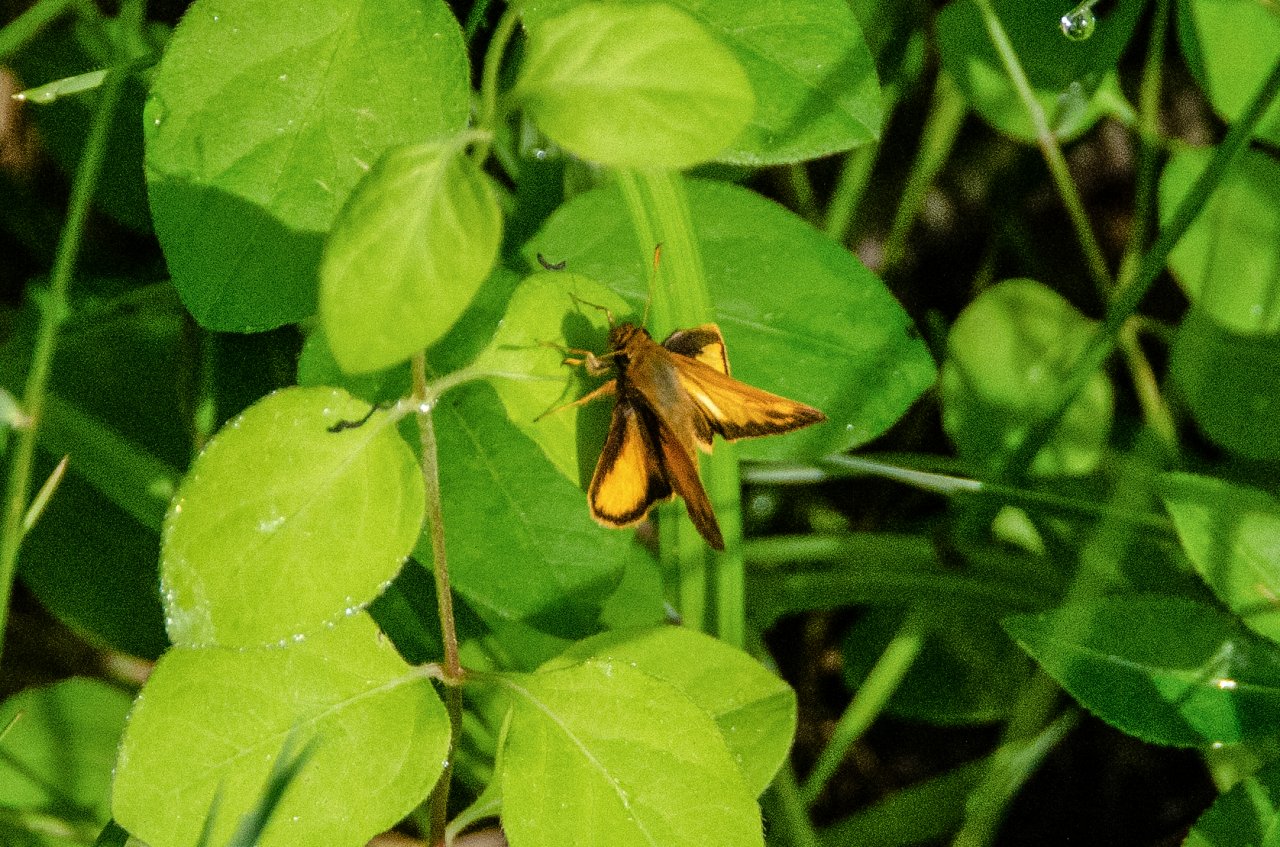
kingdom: Animalia
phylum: Arthropoda
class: Insecta
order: Lepidoptera
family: Hesperiidae
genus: Lon
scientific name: Lon zabulon
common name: Zabulon Skipper
